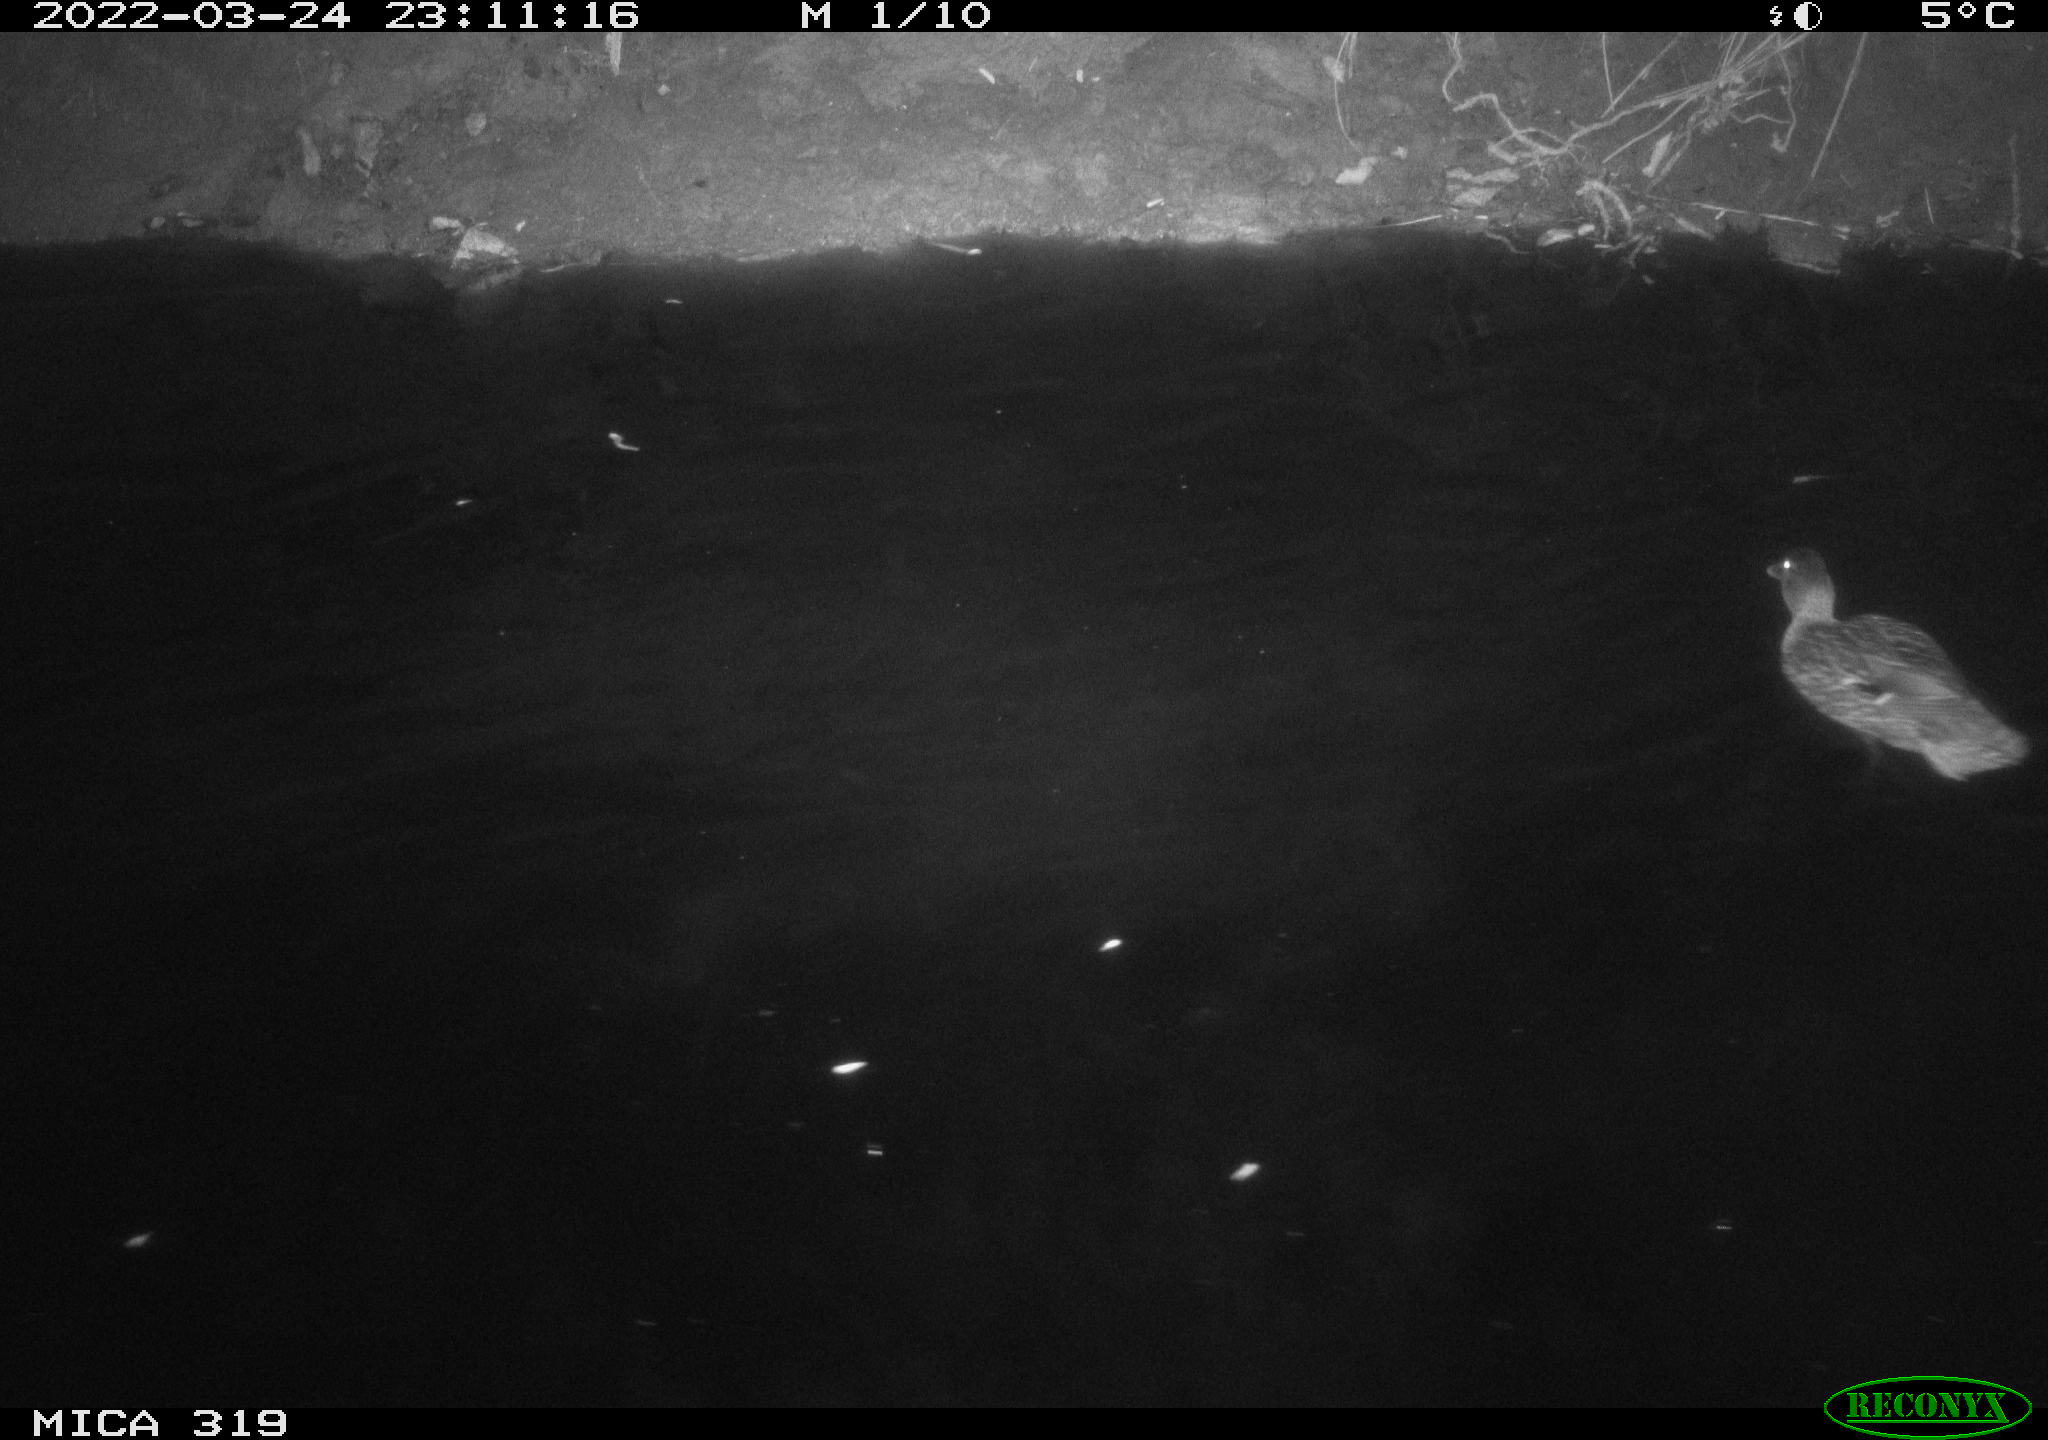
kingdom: Animalia
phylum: Chordata
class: Aves
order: Anseriformes
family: Anatidae
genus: Anas
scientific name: Anas platyrhynchos
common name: Mallard
